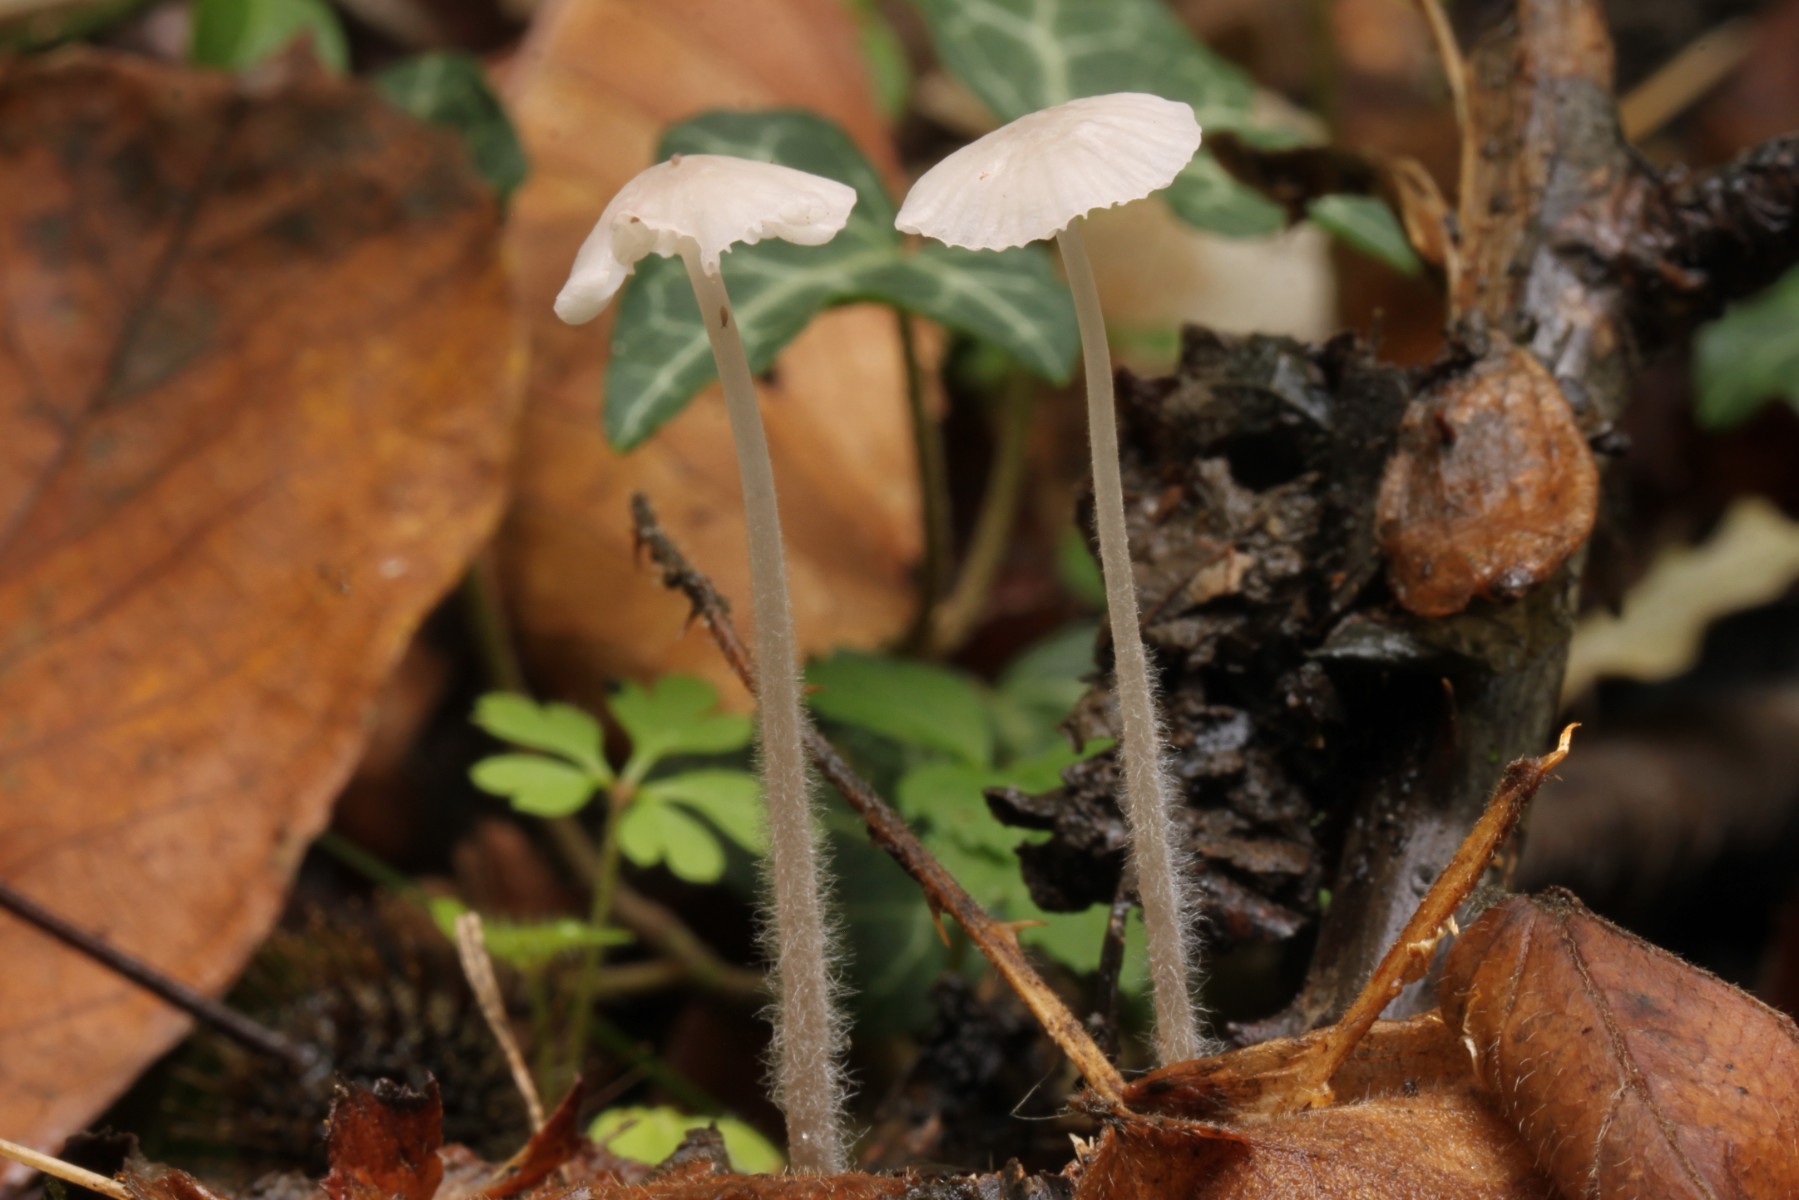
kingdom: Fungi
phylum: Basidiomycota
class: Agaricomycetes
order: Agaricales
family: Mycenaceae
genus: Mycena
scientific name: Mycena
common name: huesvamp
